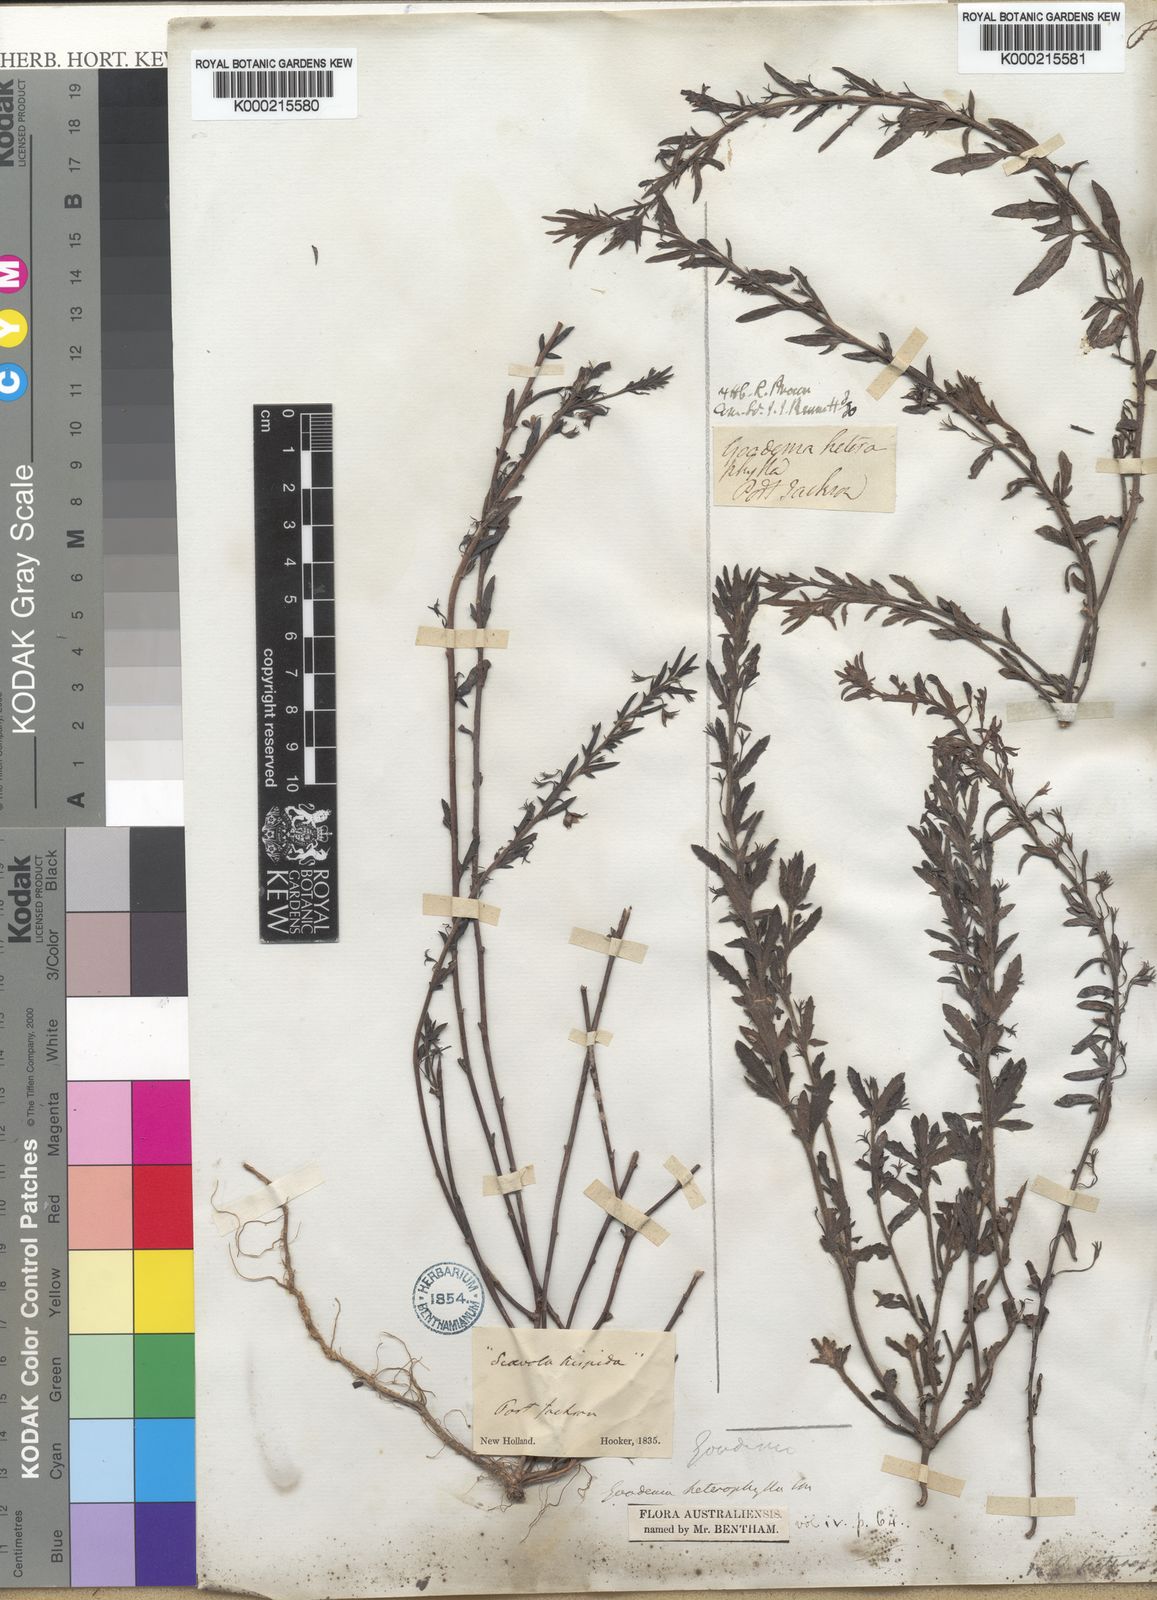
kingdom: Plantae
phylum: Tracheophyta
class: Magnoliopsida
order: Asterales
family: Goodeniaceae
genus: Goodenia
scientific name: Goodenia heterophylla
